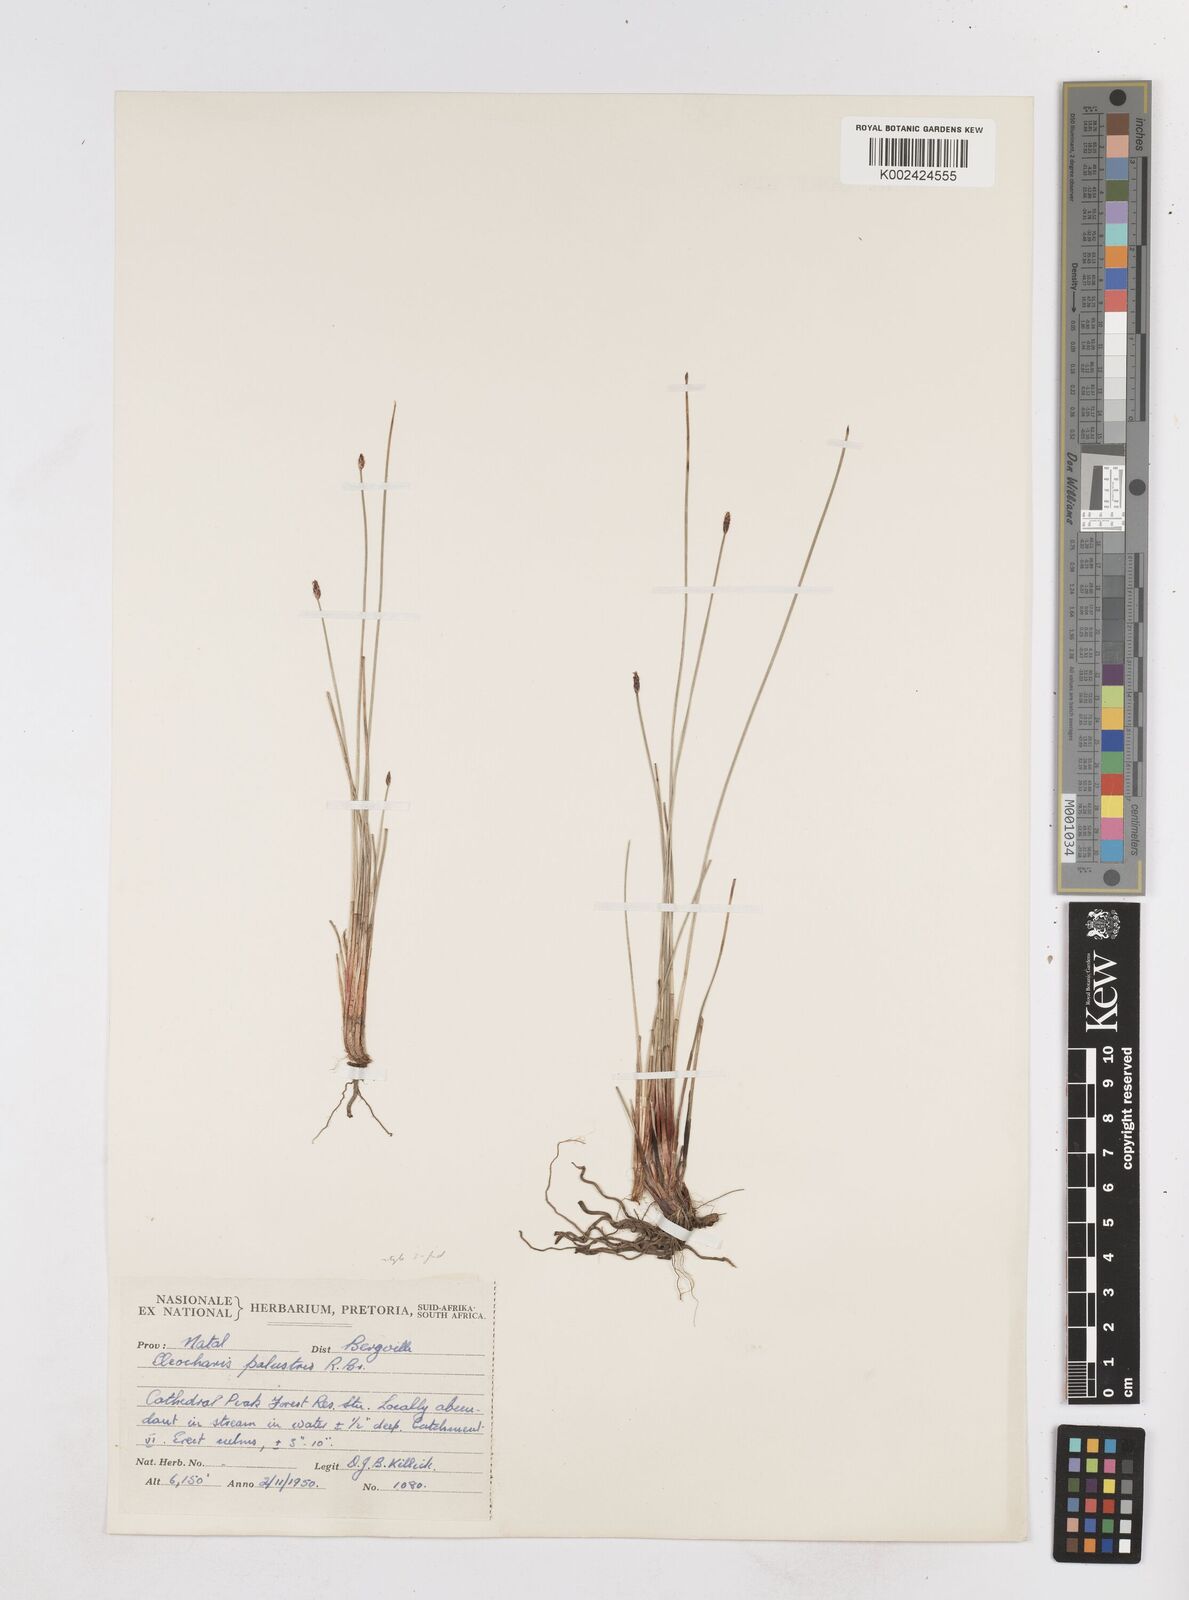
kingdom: Plantae
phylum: Tracheophyta
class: Liliopsida
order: Poales
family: Cyperaceae
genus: Eleocharis
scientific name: Eleocharis
